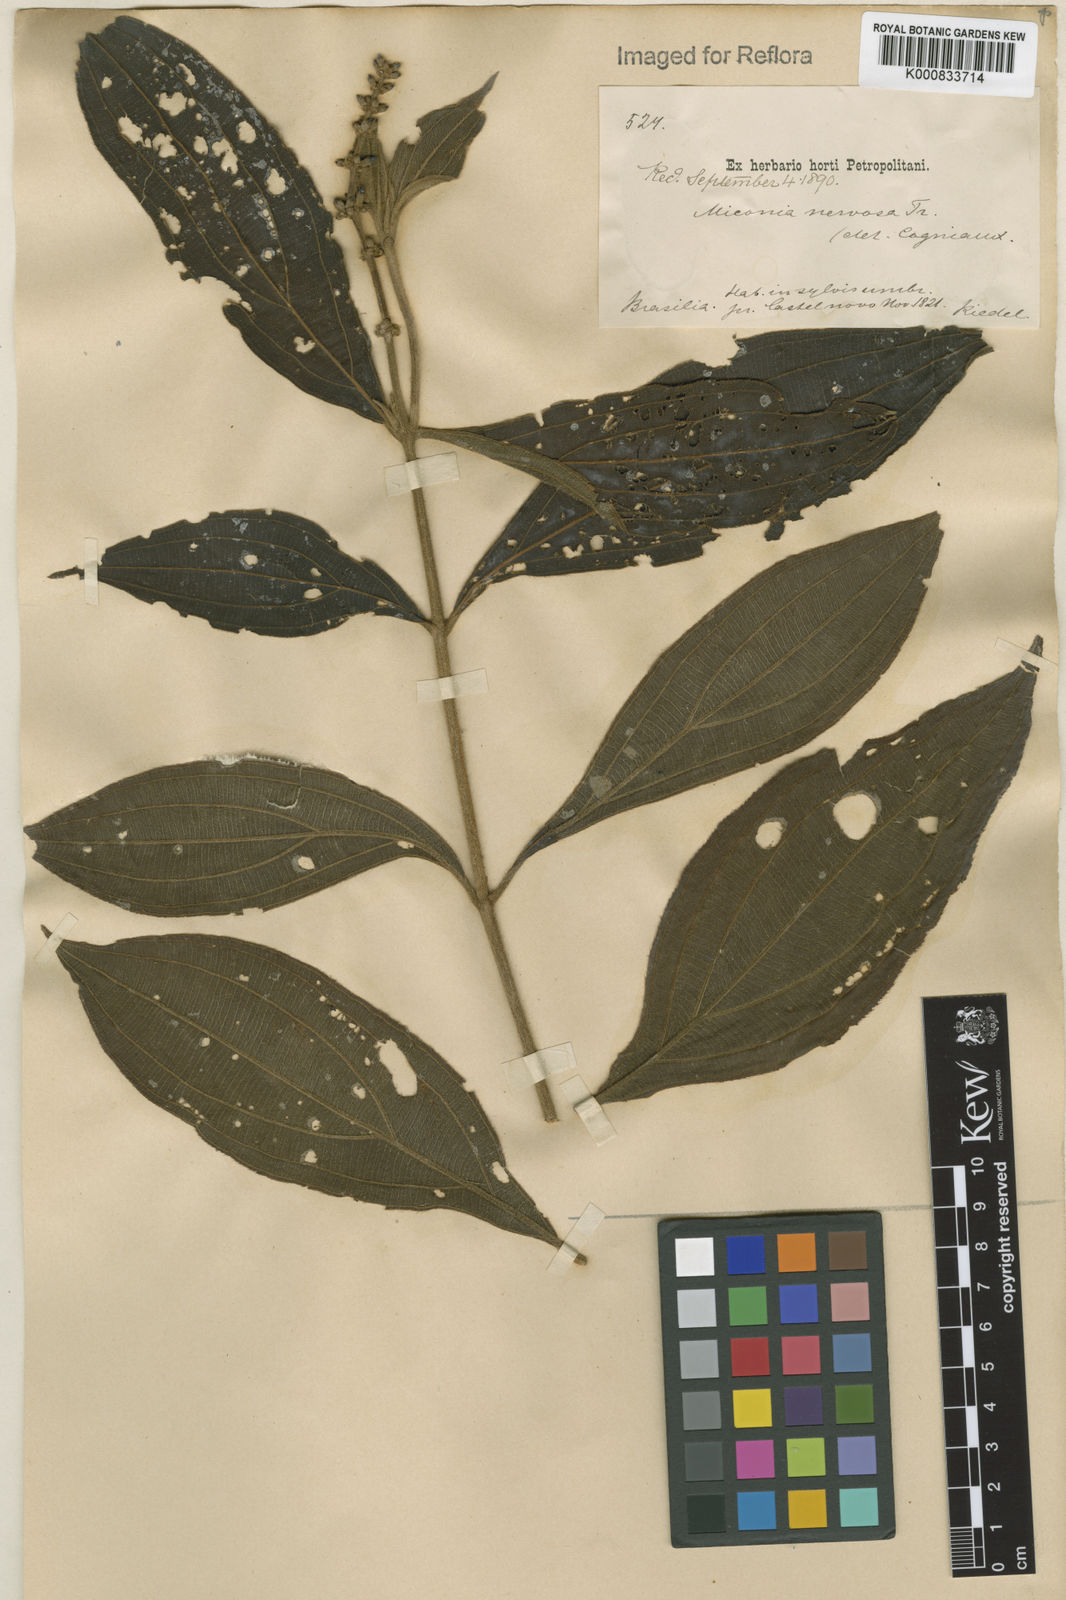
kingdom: Plantae
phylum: Tracheophyta
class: Magnoliopsida
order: Myrtales
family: Melastomataceae
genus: Miconia
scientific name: Miconia nervosa
